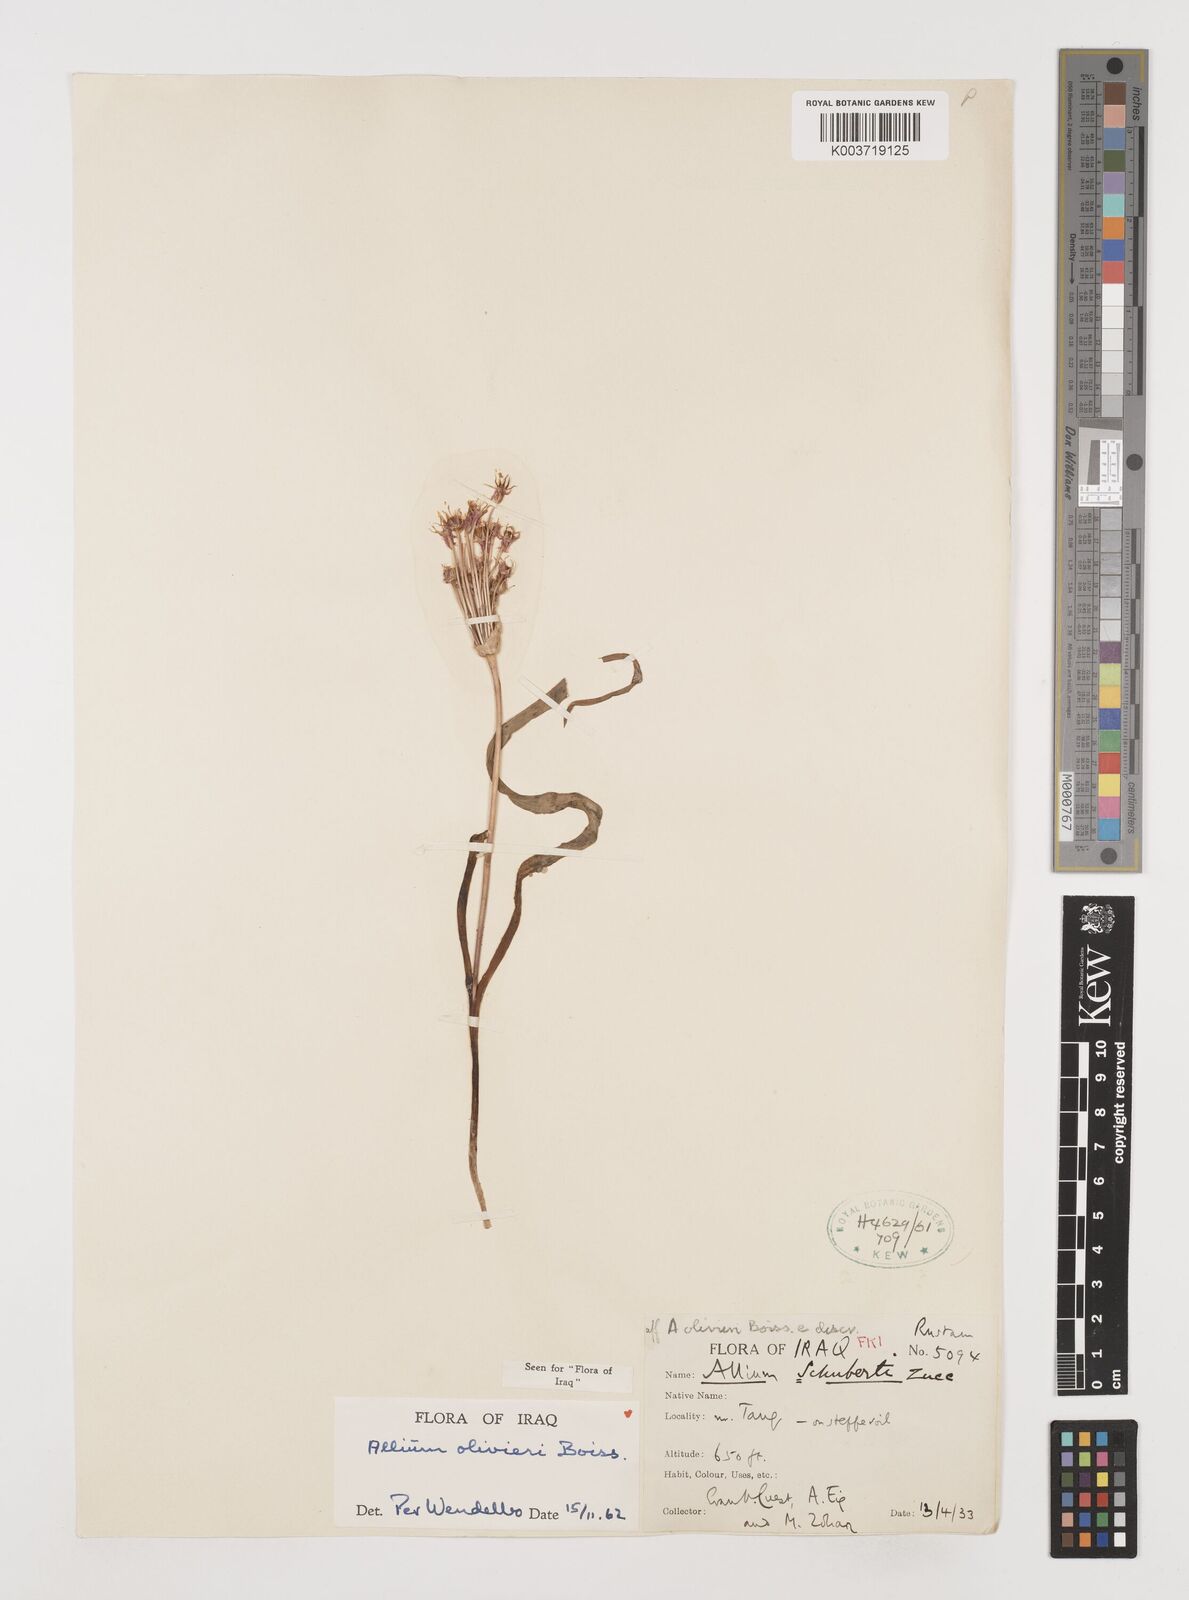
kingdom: Plantae
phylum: Tracheophyta
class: Liliopsida
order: Asparagales
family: Amaryllidaceae
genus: Allium
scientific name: Allium olivieri
